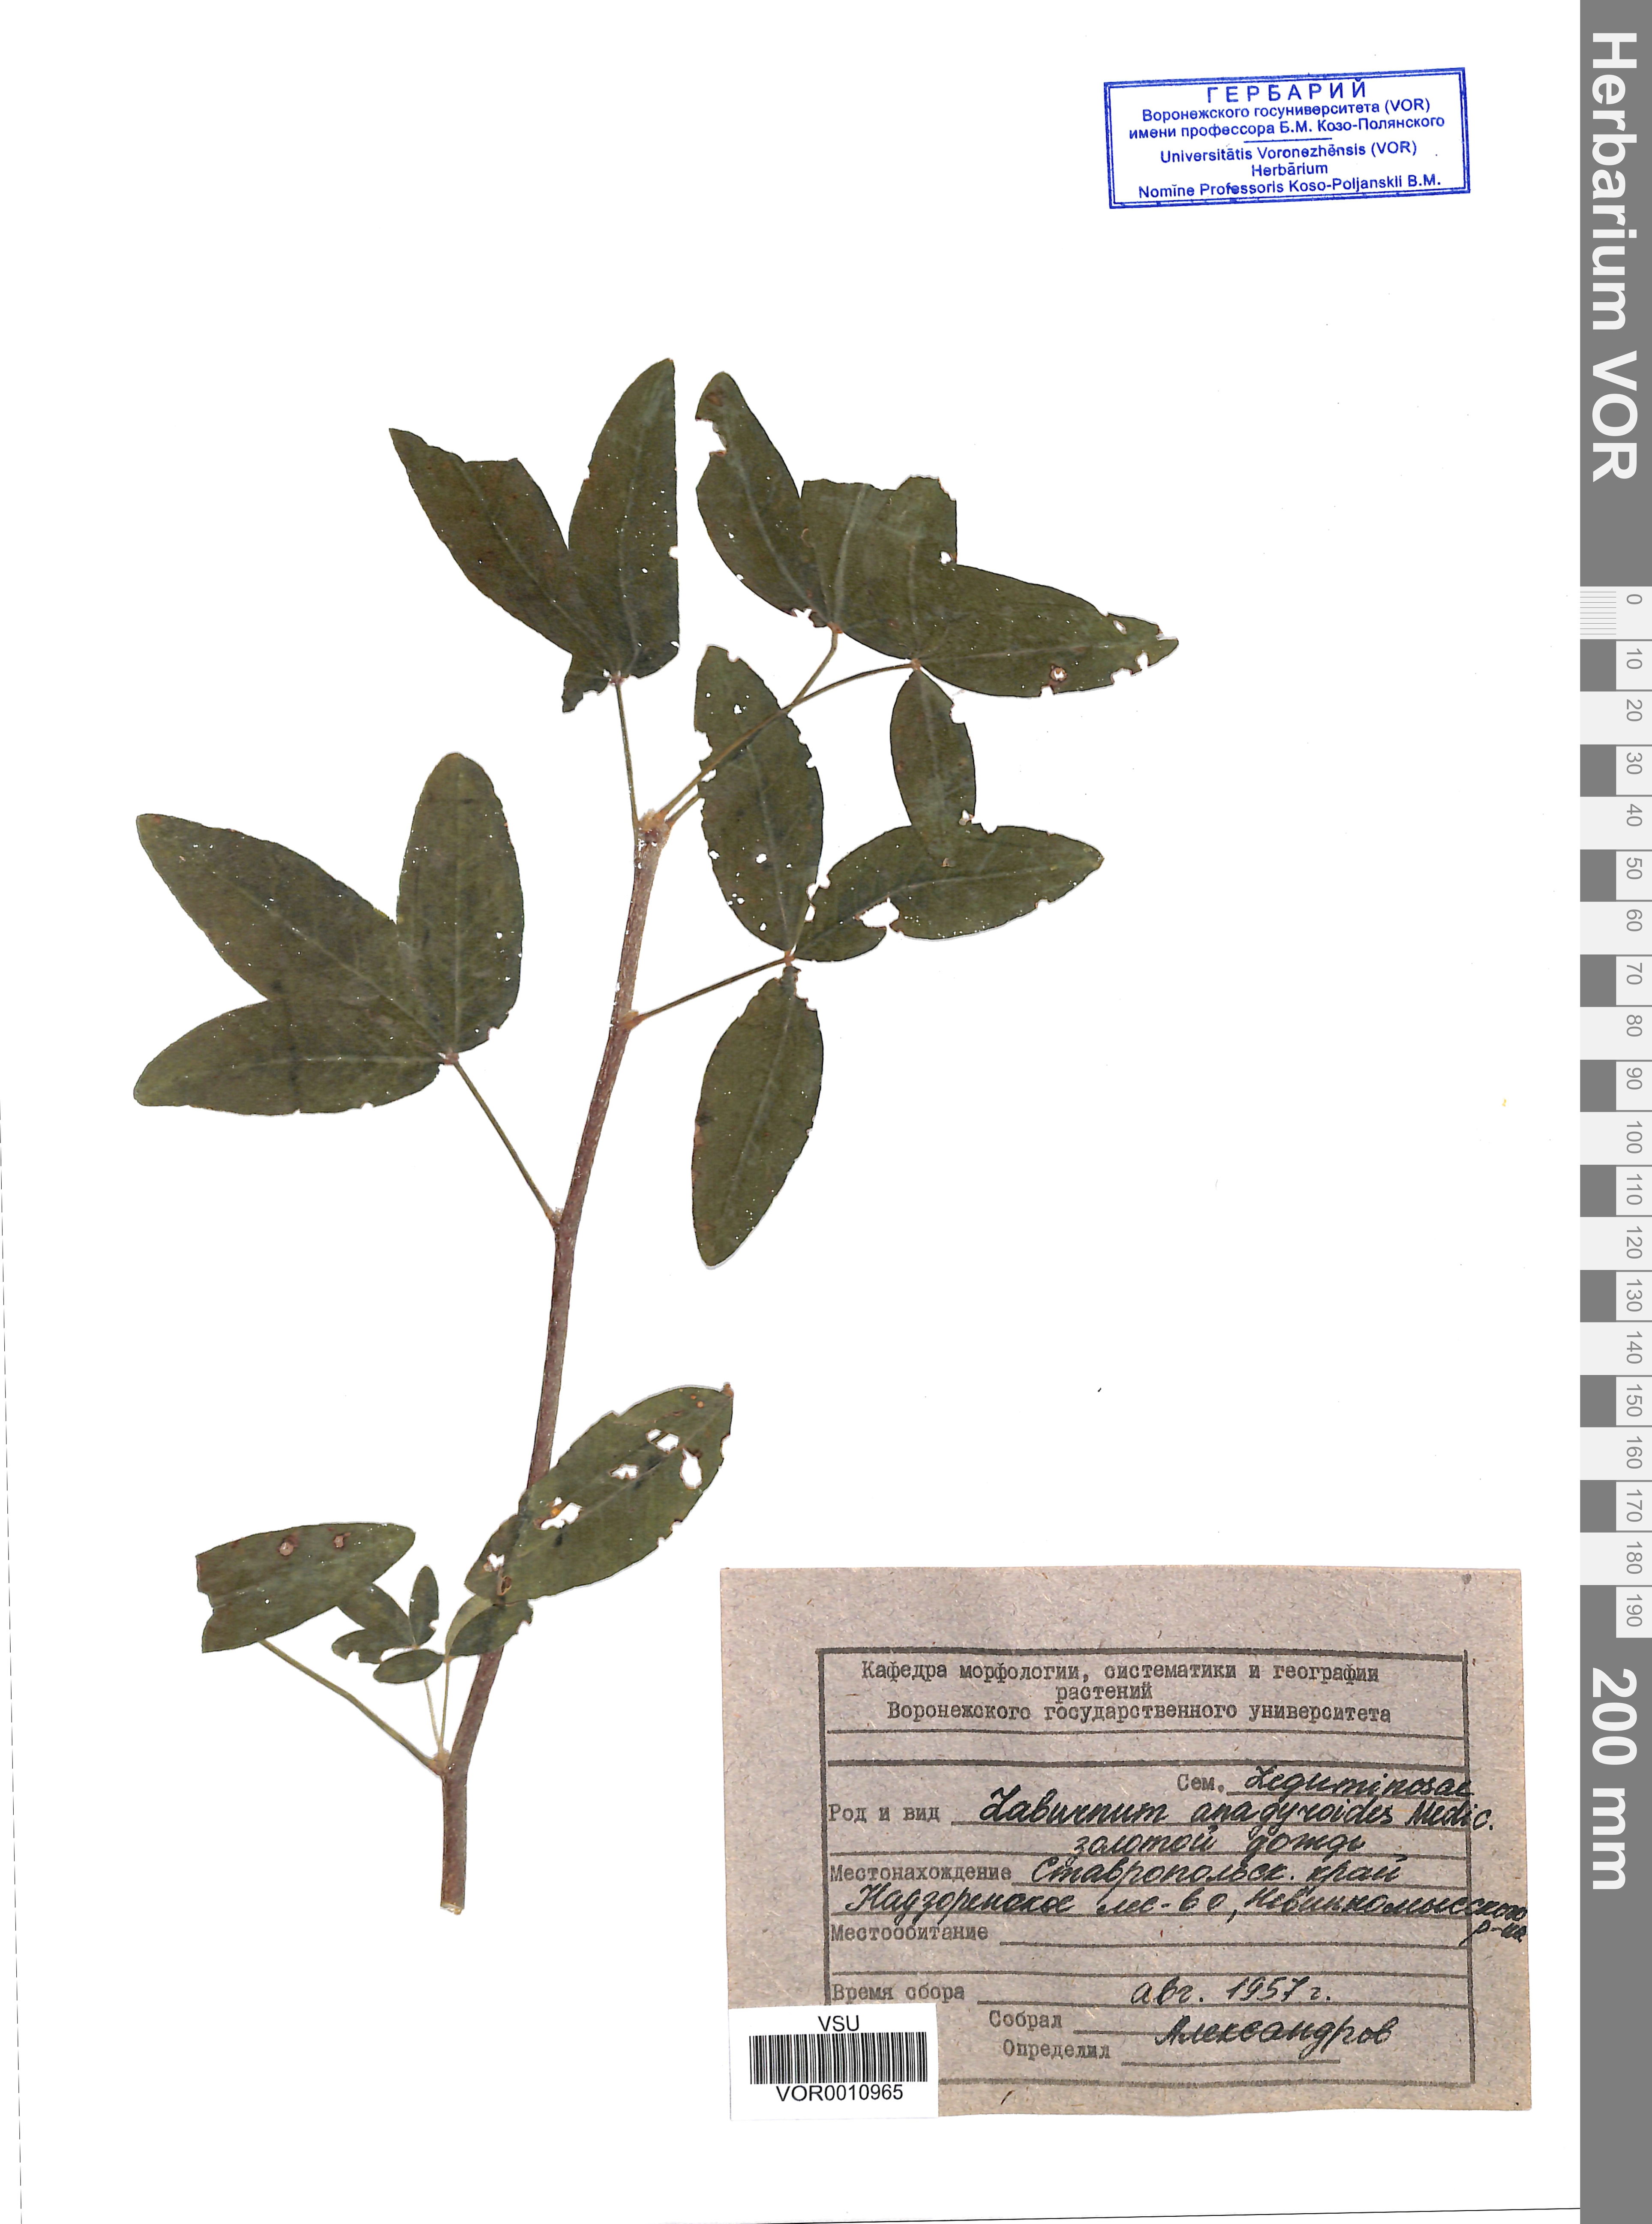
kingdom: Plantae
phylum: Tracheophyta
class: Magnoliopsida
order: Fabales
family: Fabaceae
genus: Laburnum
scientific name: Laburnum anagyroides
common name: Laburnum
